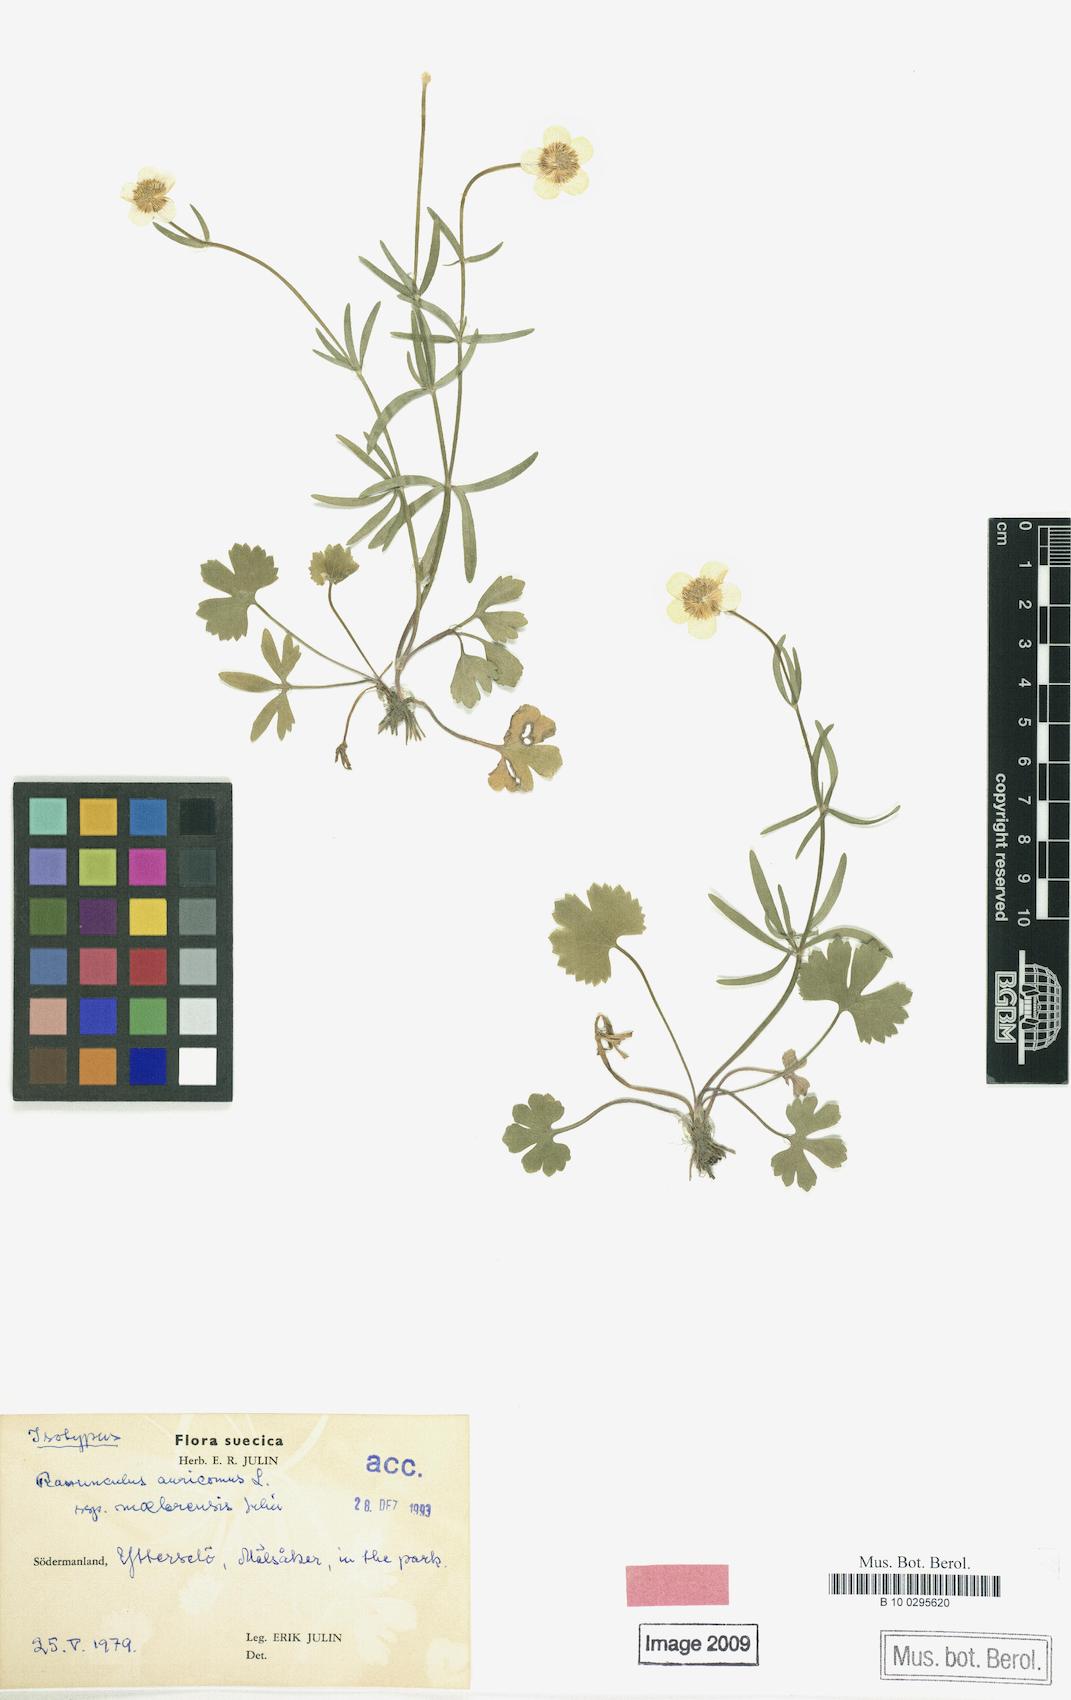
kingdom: Plantae
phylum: Tracheophyta
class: Magnoliopsida
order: Ranunculales
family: Ranunculaceae
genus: Ranunculus
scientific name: Ranunculus maelarensis
